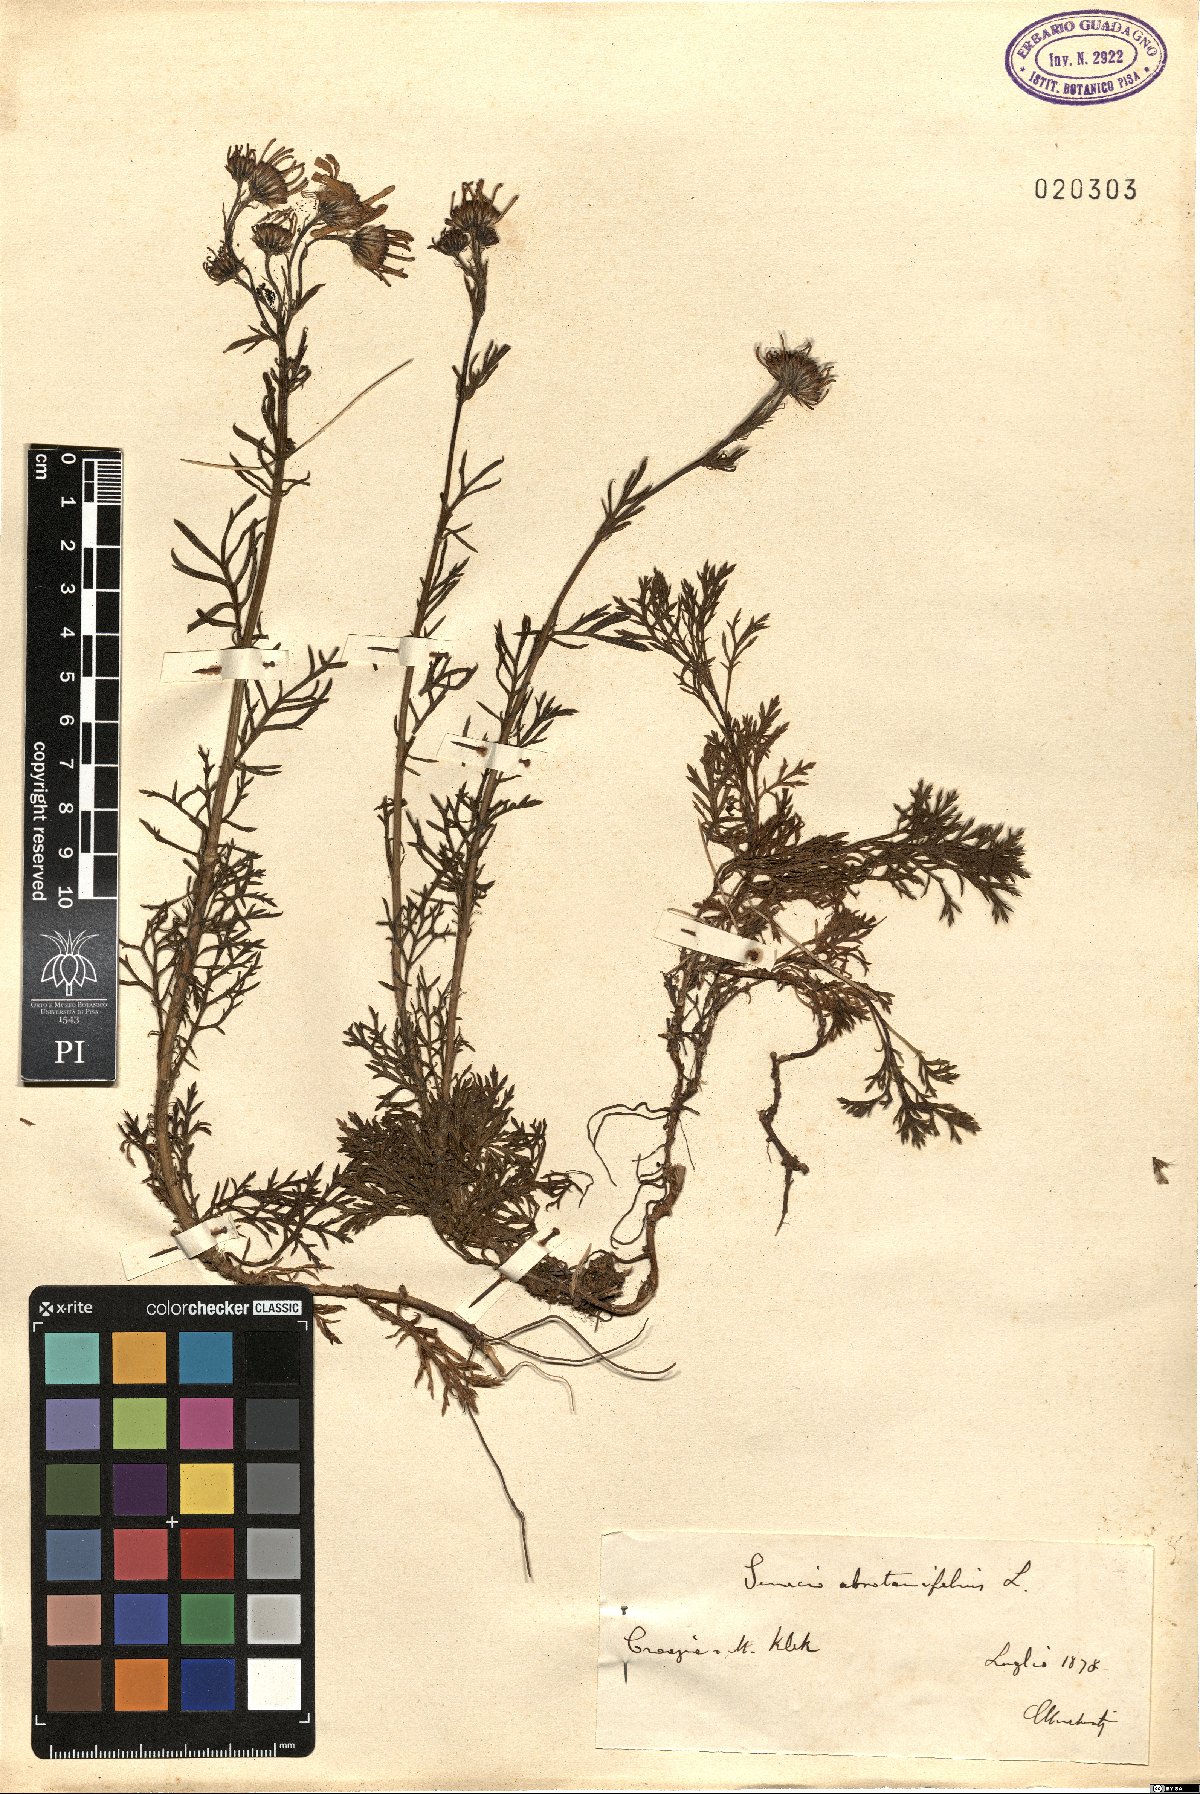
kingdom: Plantae
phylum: Tracheophyta
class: Magnoliopsida
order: Asterales
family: Asteraceae
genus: Jacobaea
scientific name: Jacobaea abrotanifolia
